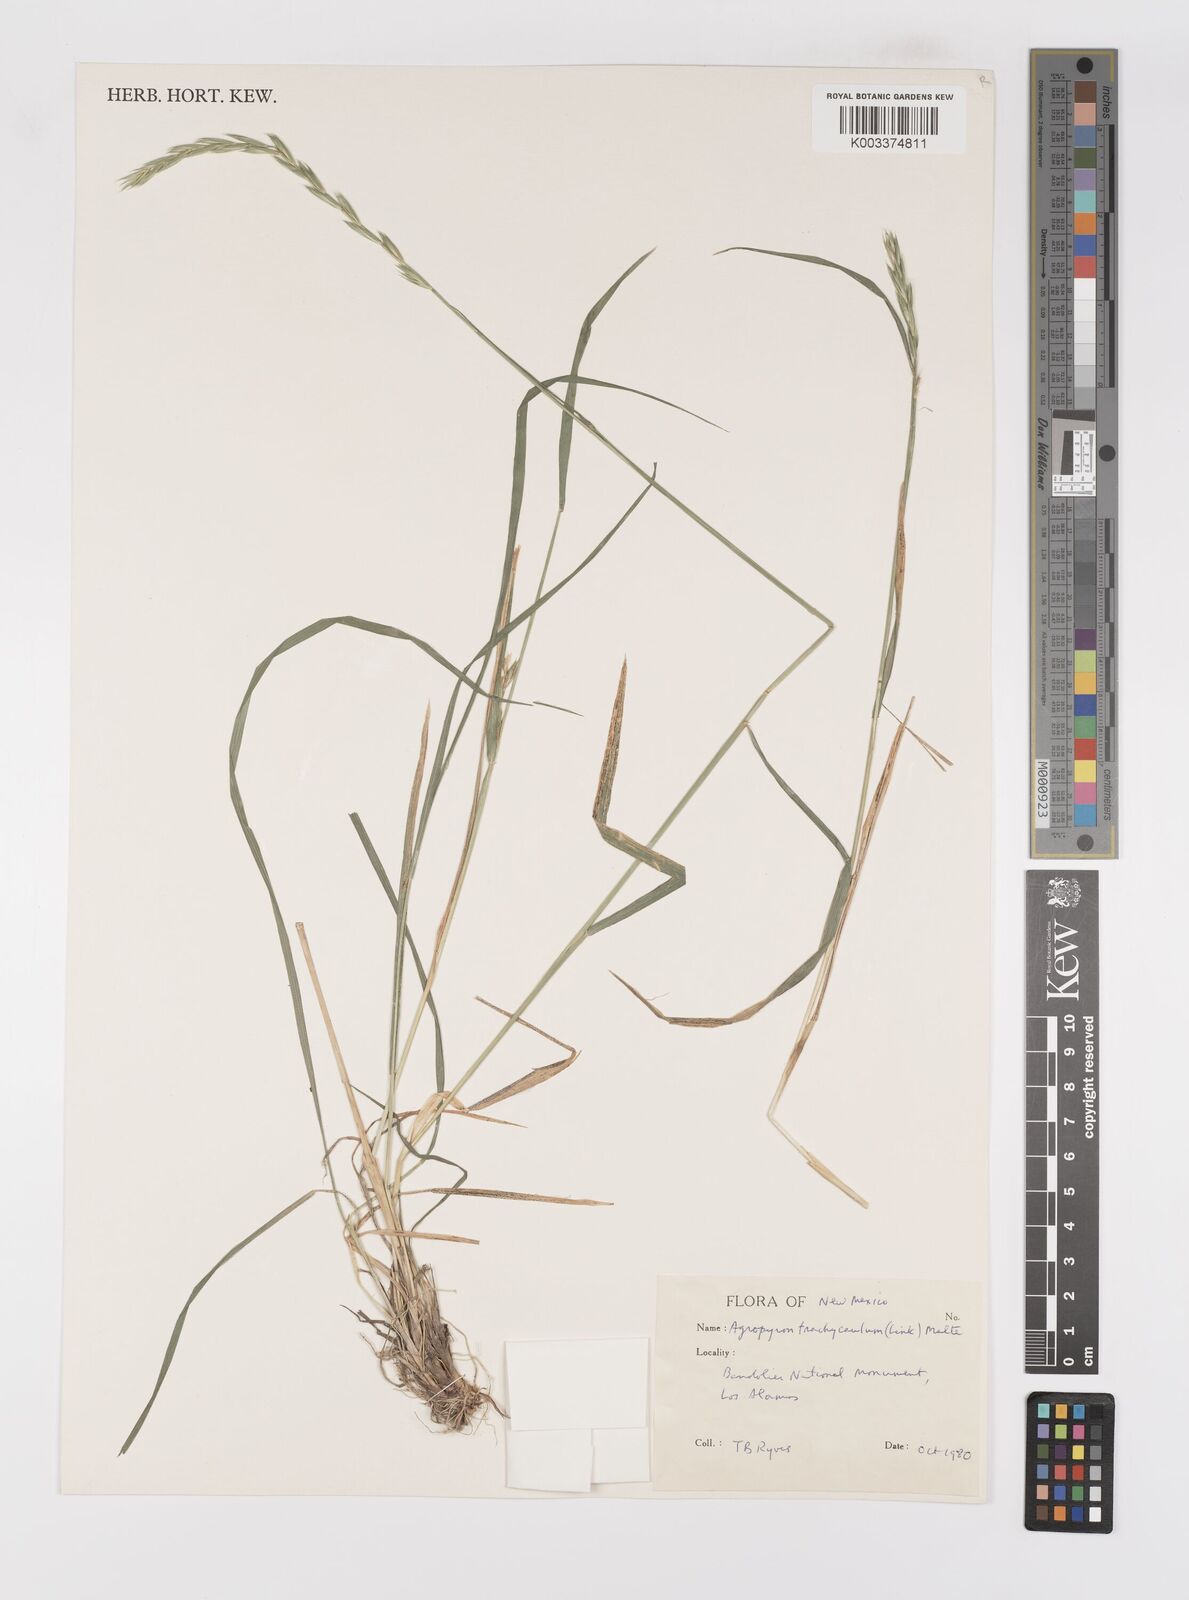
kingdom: Plantae
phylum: Tracheophyta
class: Liliopsida
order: Poales
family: Poaceae
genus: Elymus
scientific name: Elymus violaceus
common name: Arctic wheatgrass
